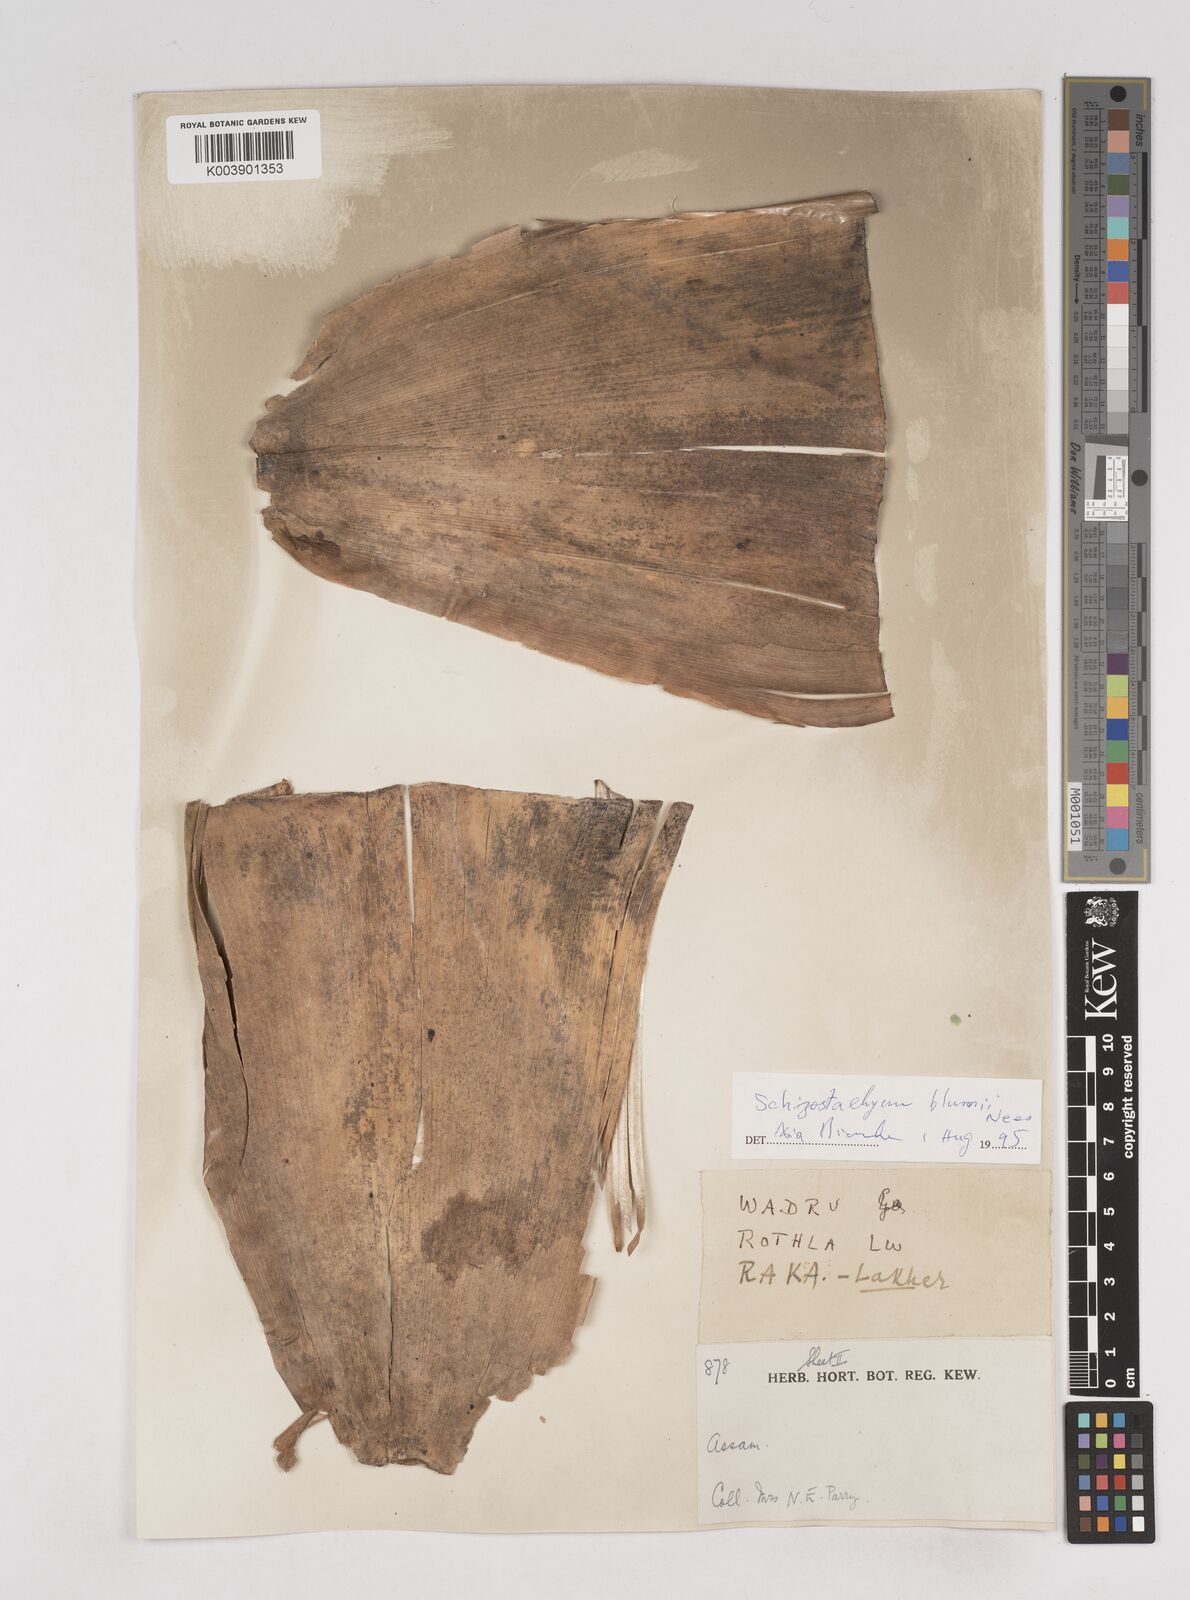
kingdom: Plantae
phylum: Tracheophyta
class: Liliopsida
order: Poales
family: Poaceae
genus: Schizostachyum
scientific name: Schizostachyum dullooa
